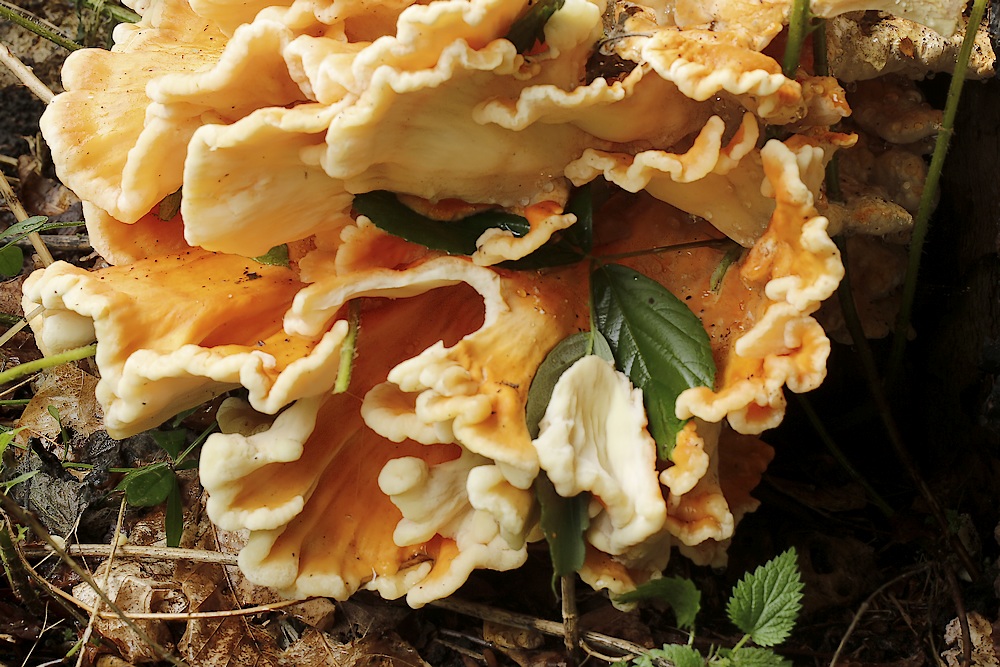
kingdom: Fungi
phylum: Basidiomycota
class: Agaricomycetes
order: Polyporales
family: Laetiporaceae
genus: Laetiporus
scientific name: Laetiporus sulphureus
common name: svovlporesvamp
